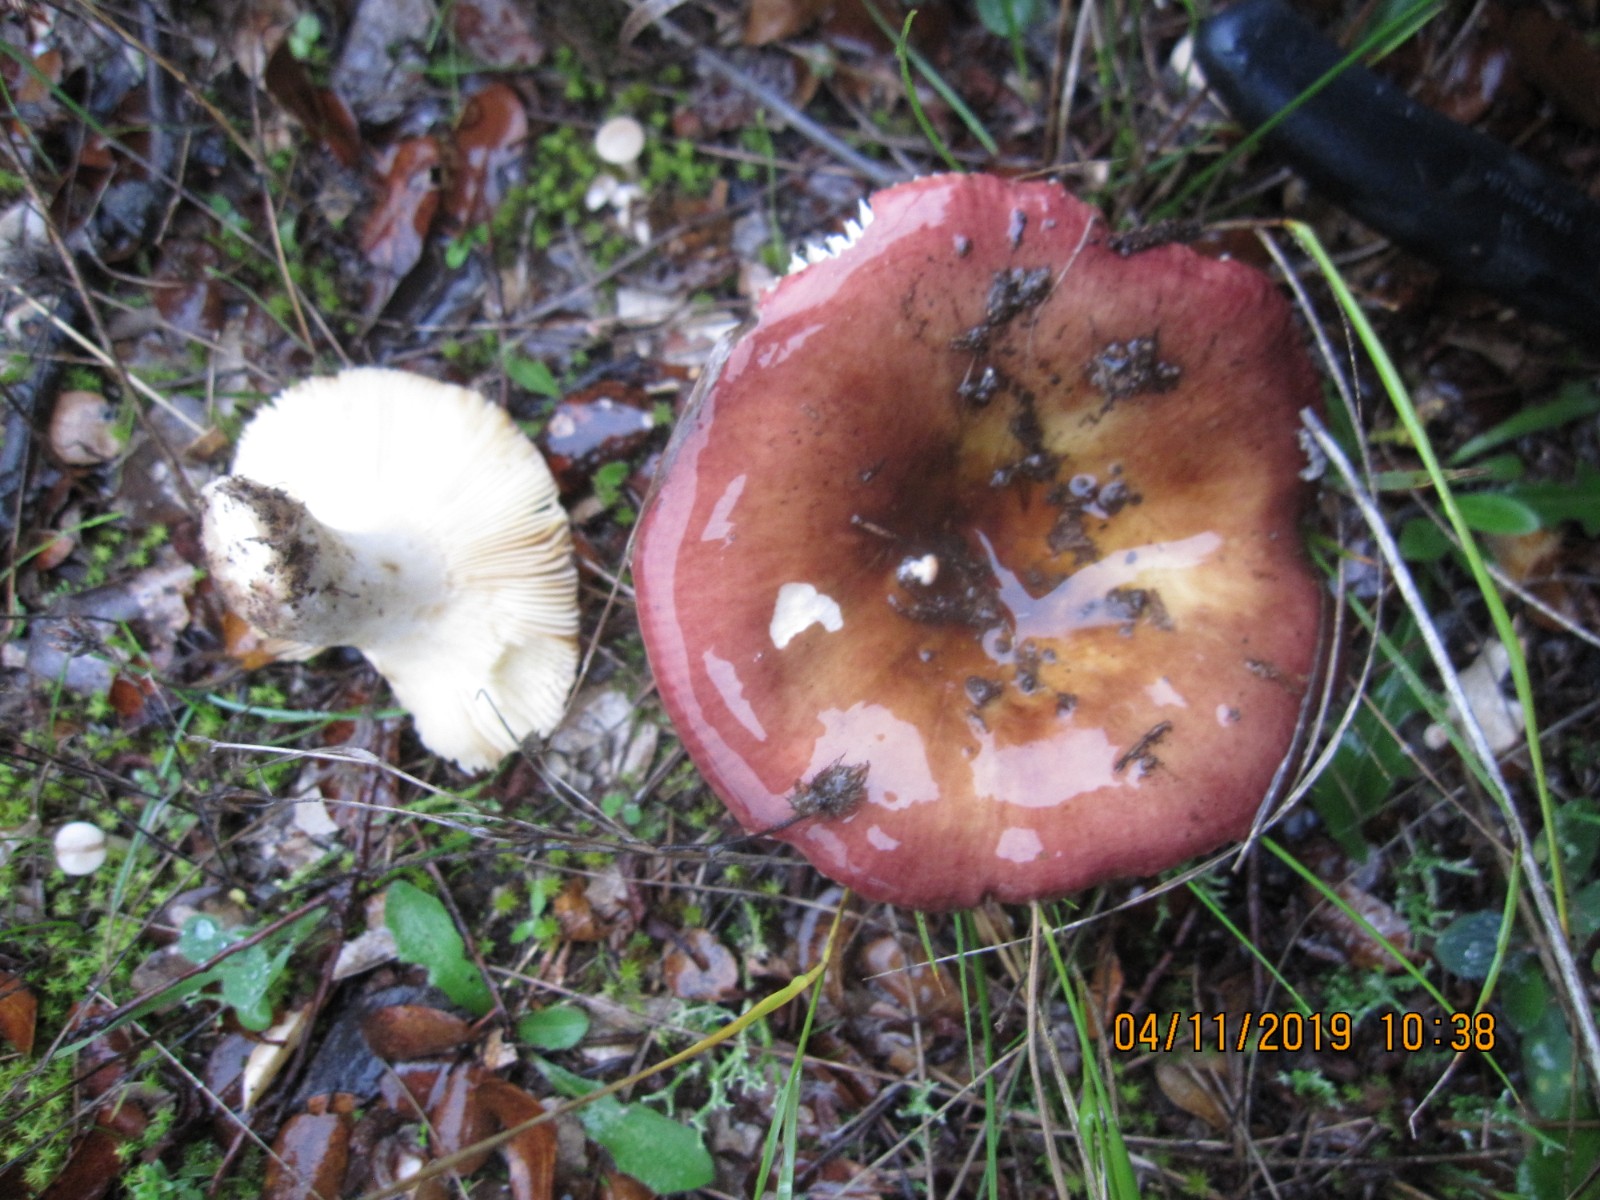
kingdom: Fungi
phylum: Basidiomycota
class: Agaricomycetes
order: Russulales
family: Russulaceae
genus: Russula
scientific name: Russula graveolens
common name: bugtet skørhat
